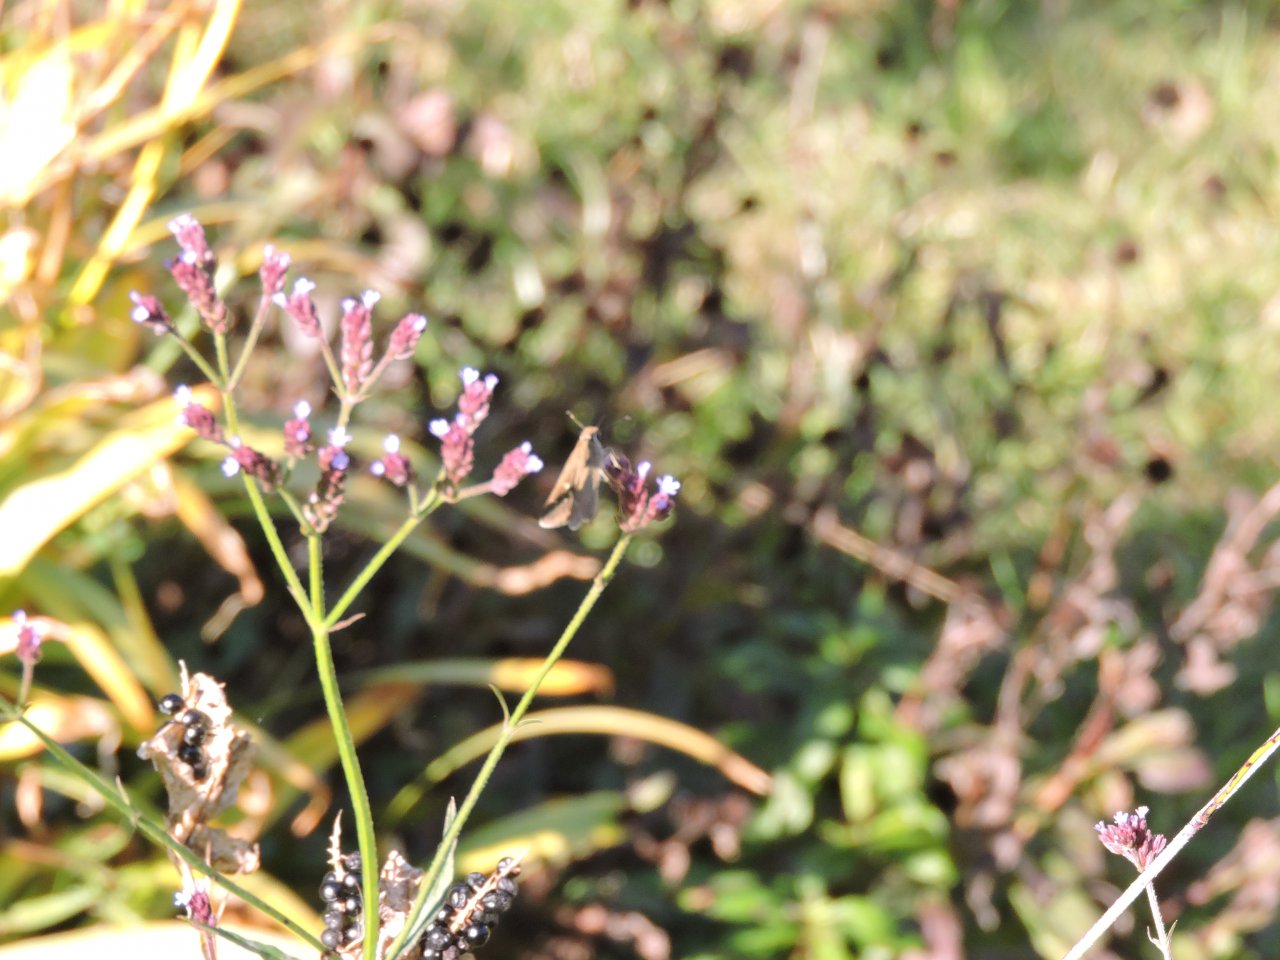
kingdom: Animalia
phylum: Arthropoda
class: Insecta
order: Lepidoptera
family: Hesperiidae
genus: Lerodea
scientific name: Lerodea eufala
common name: Eufala Skipper
